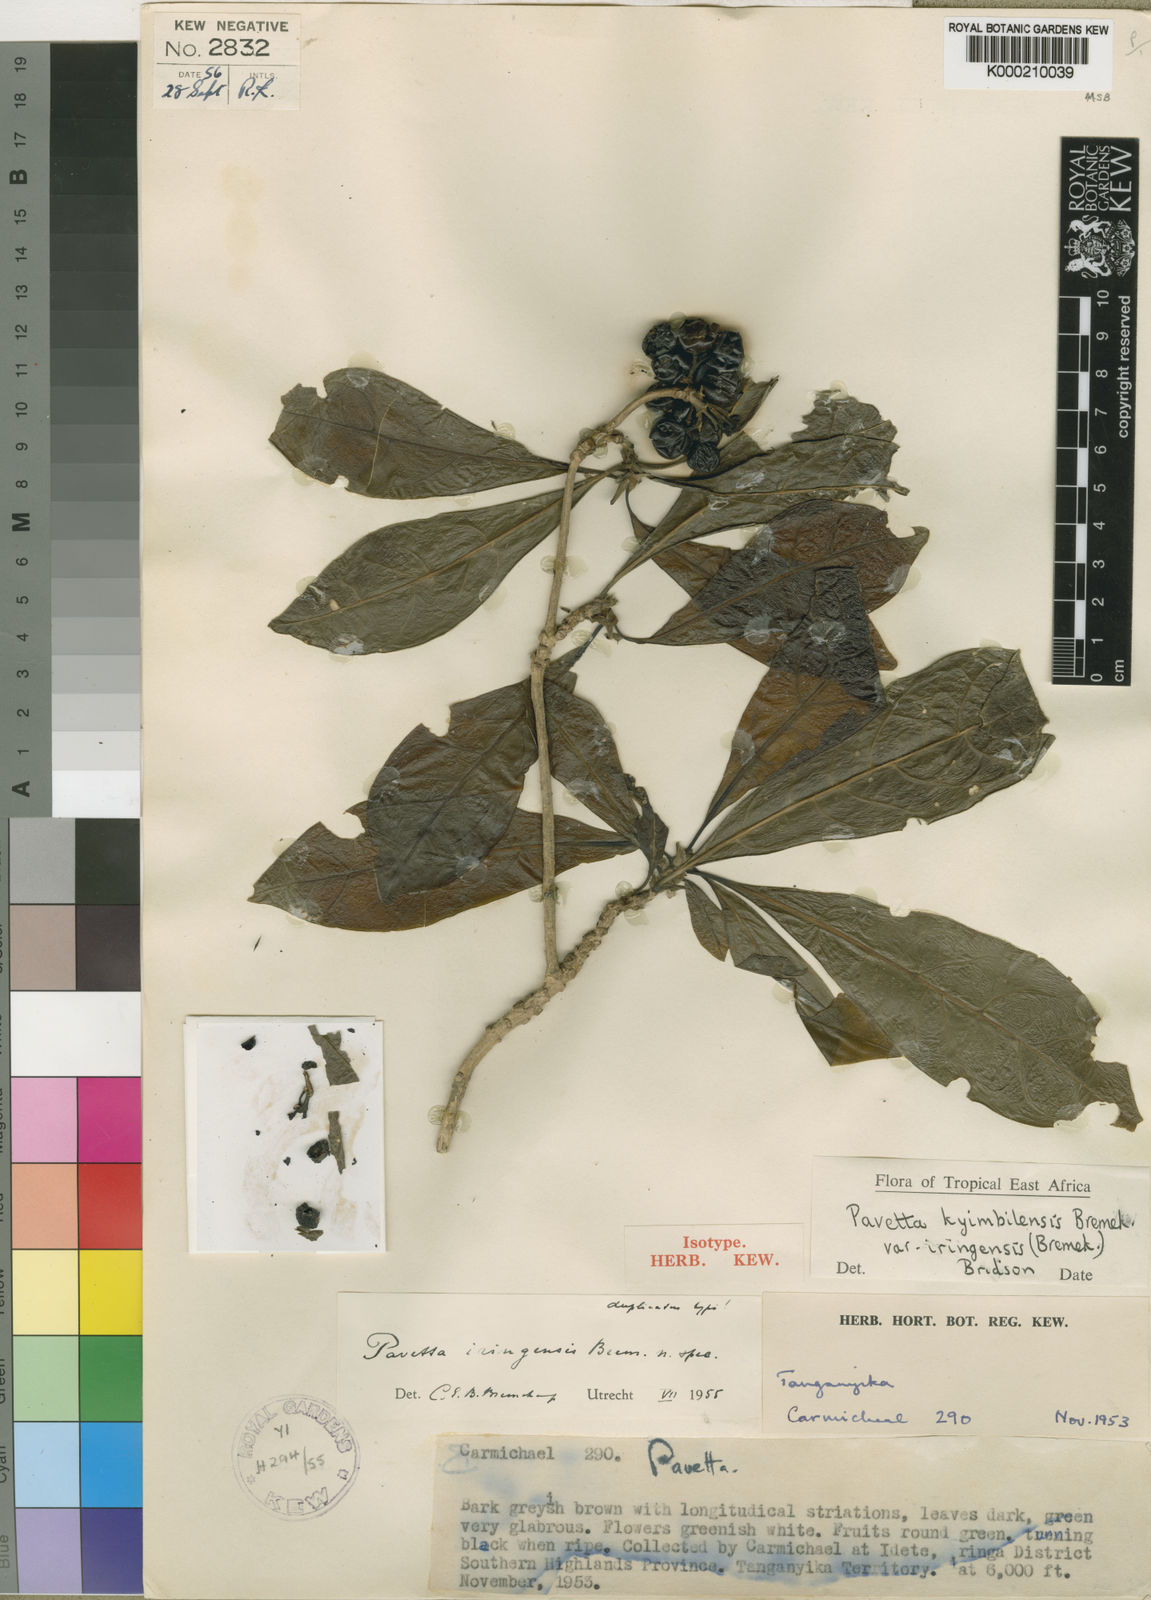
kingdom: Plantae
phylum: Tracheophyta
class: Magnoliopsida
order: Gentianales
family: Rubiaceae
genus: Pavetta
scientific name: Pavetta kyimbilensis
